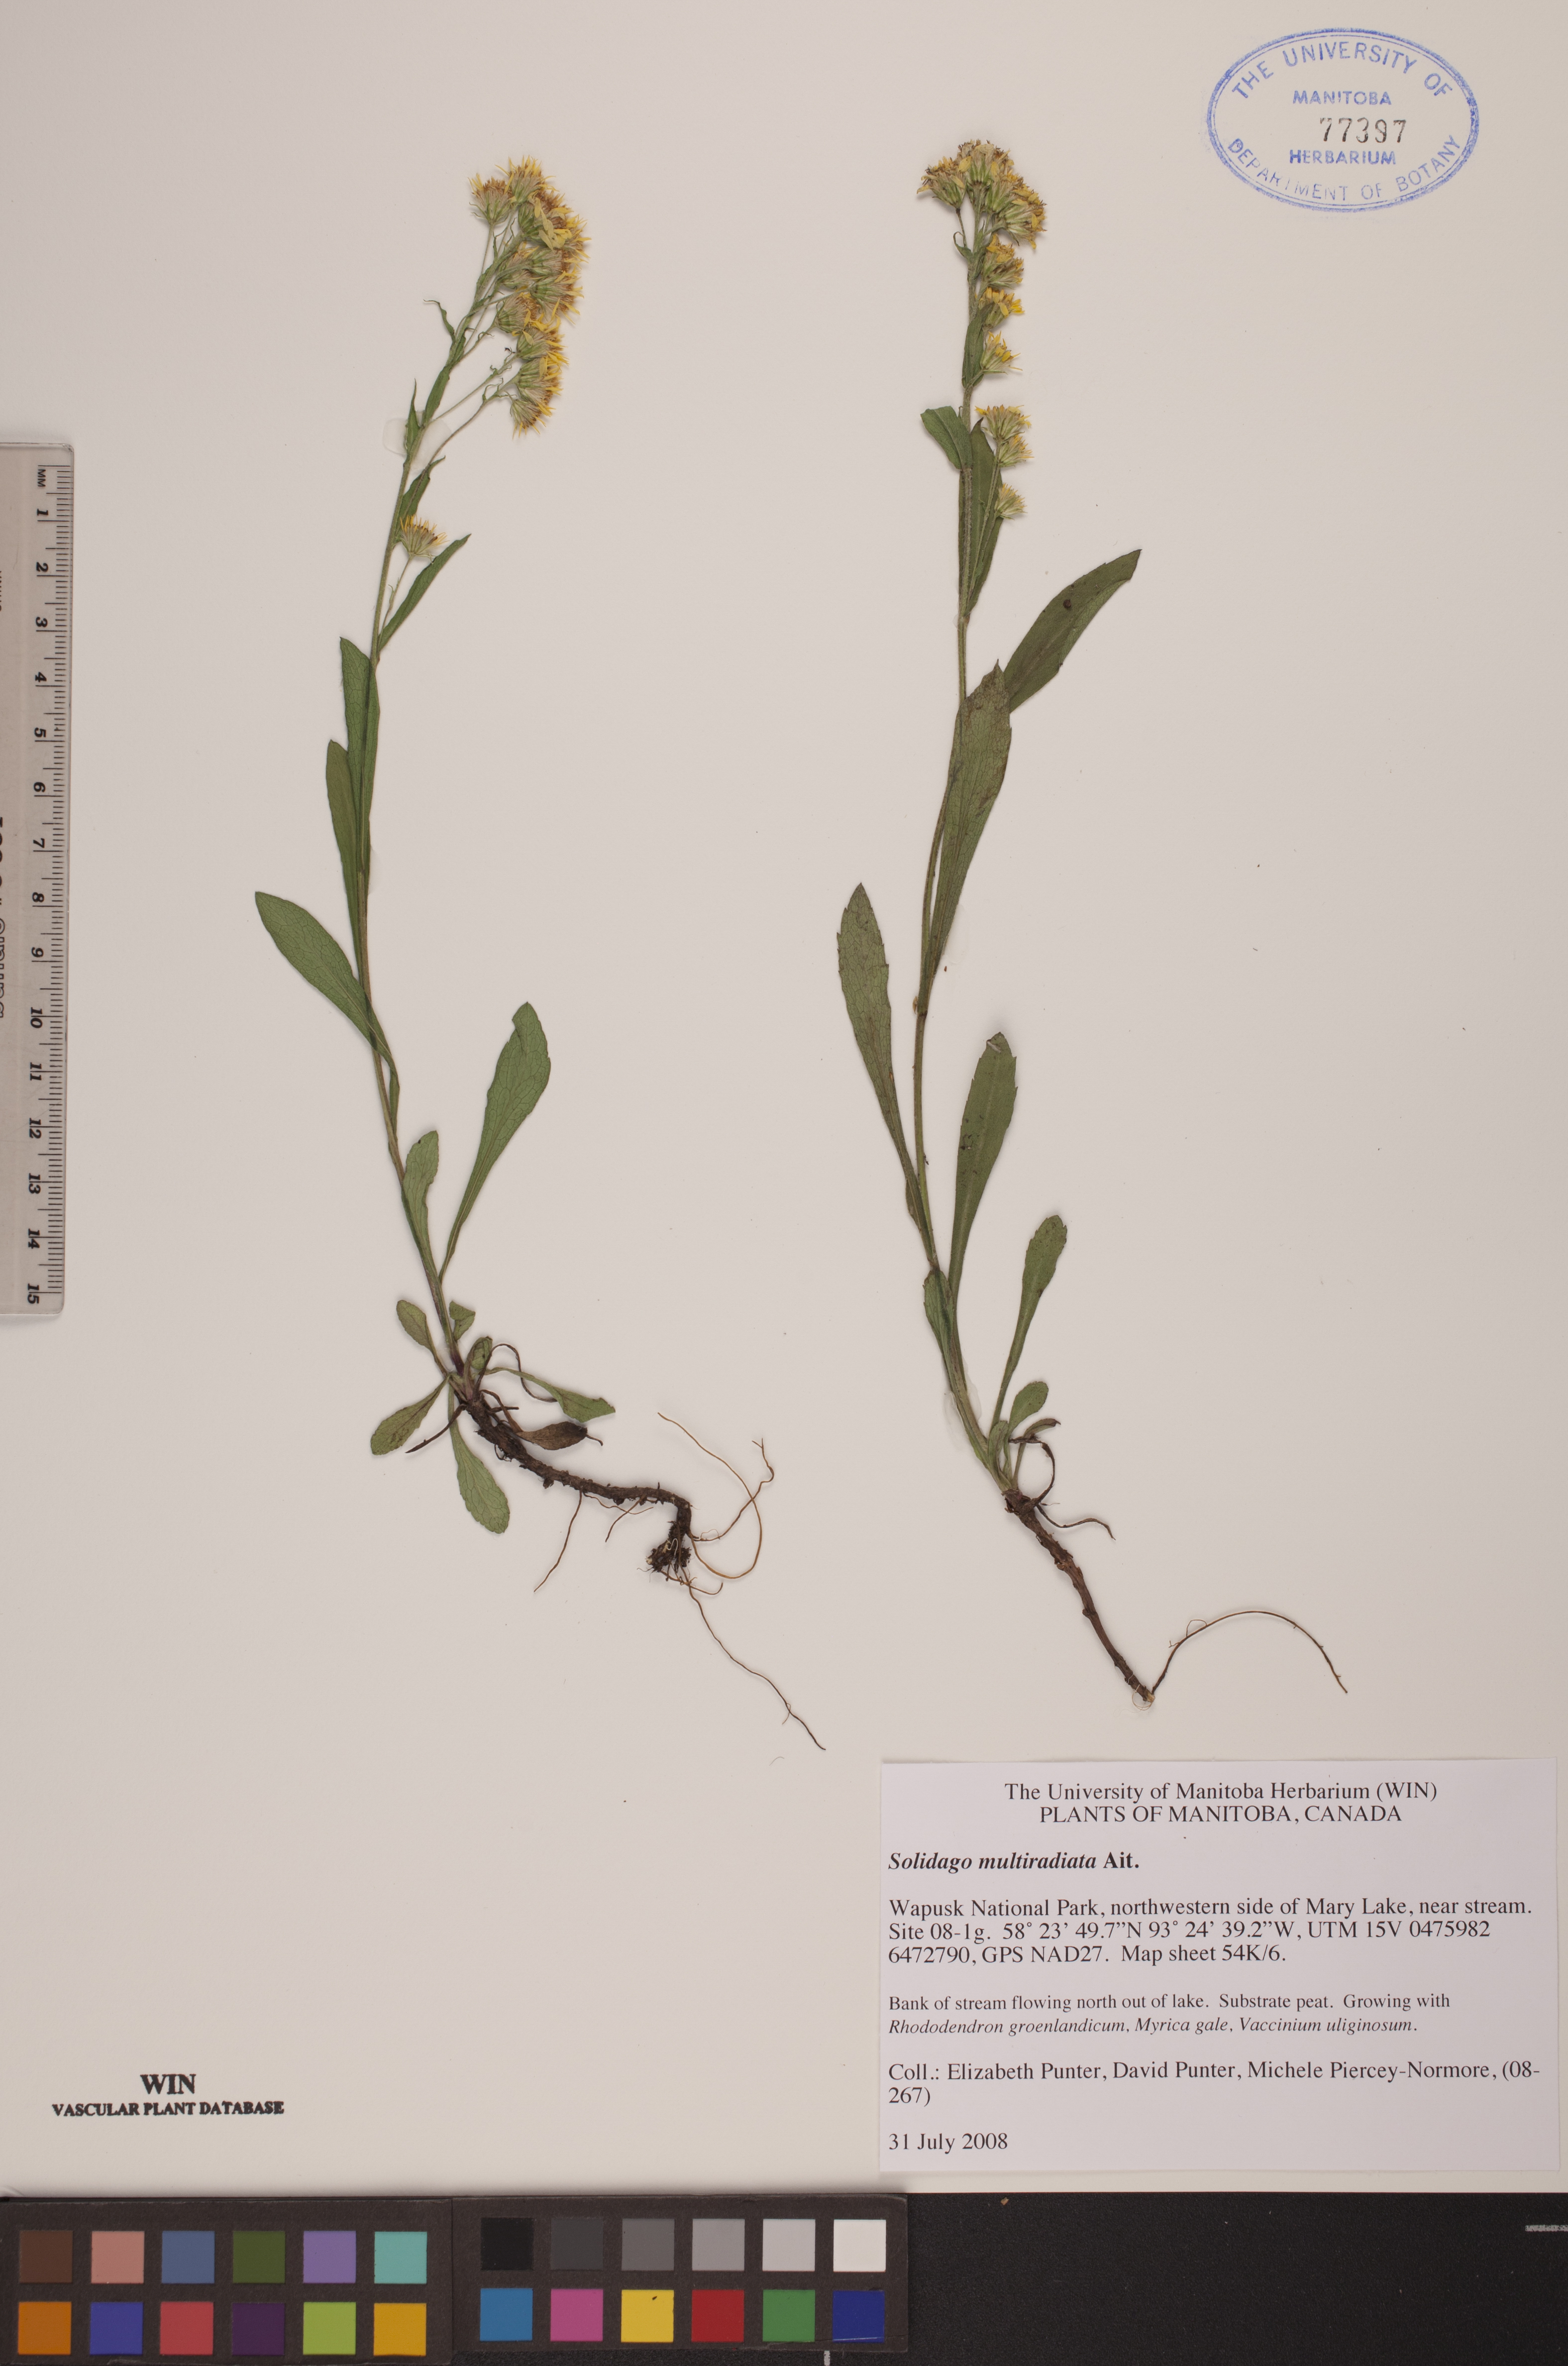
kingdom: Plantae
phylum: Tracheophyta
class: Magnoliopsida
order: Asterales
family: Asteraceae
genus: Solidago
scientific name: Solidago multiradiata
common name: Northern goldenrod
